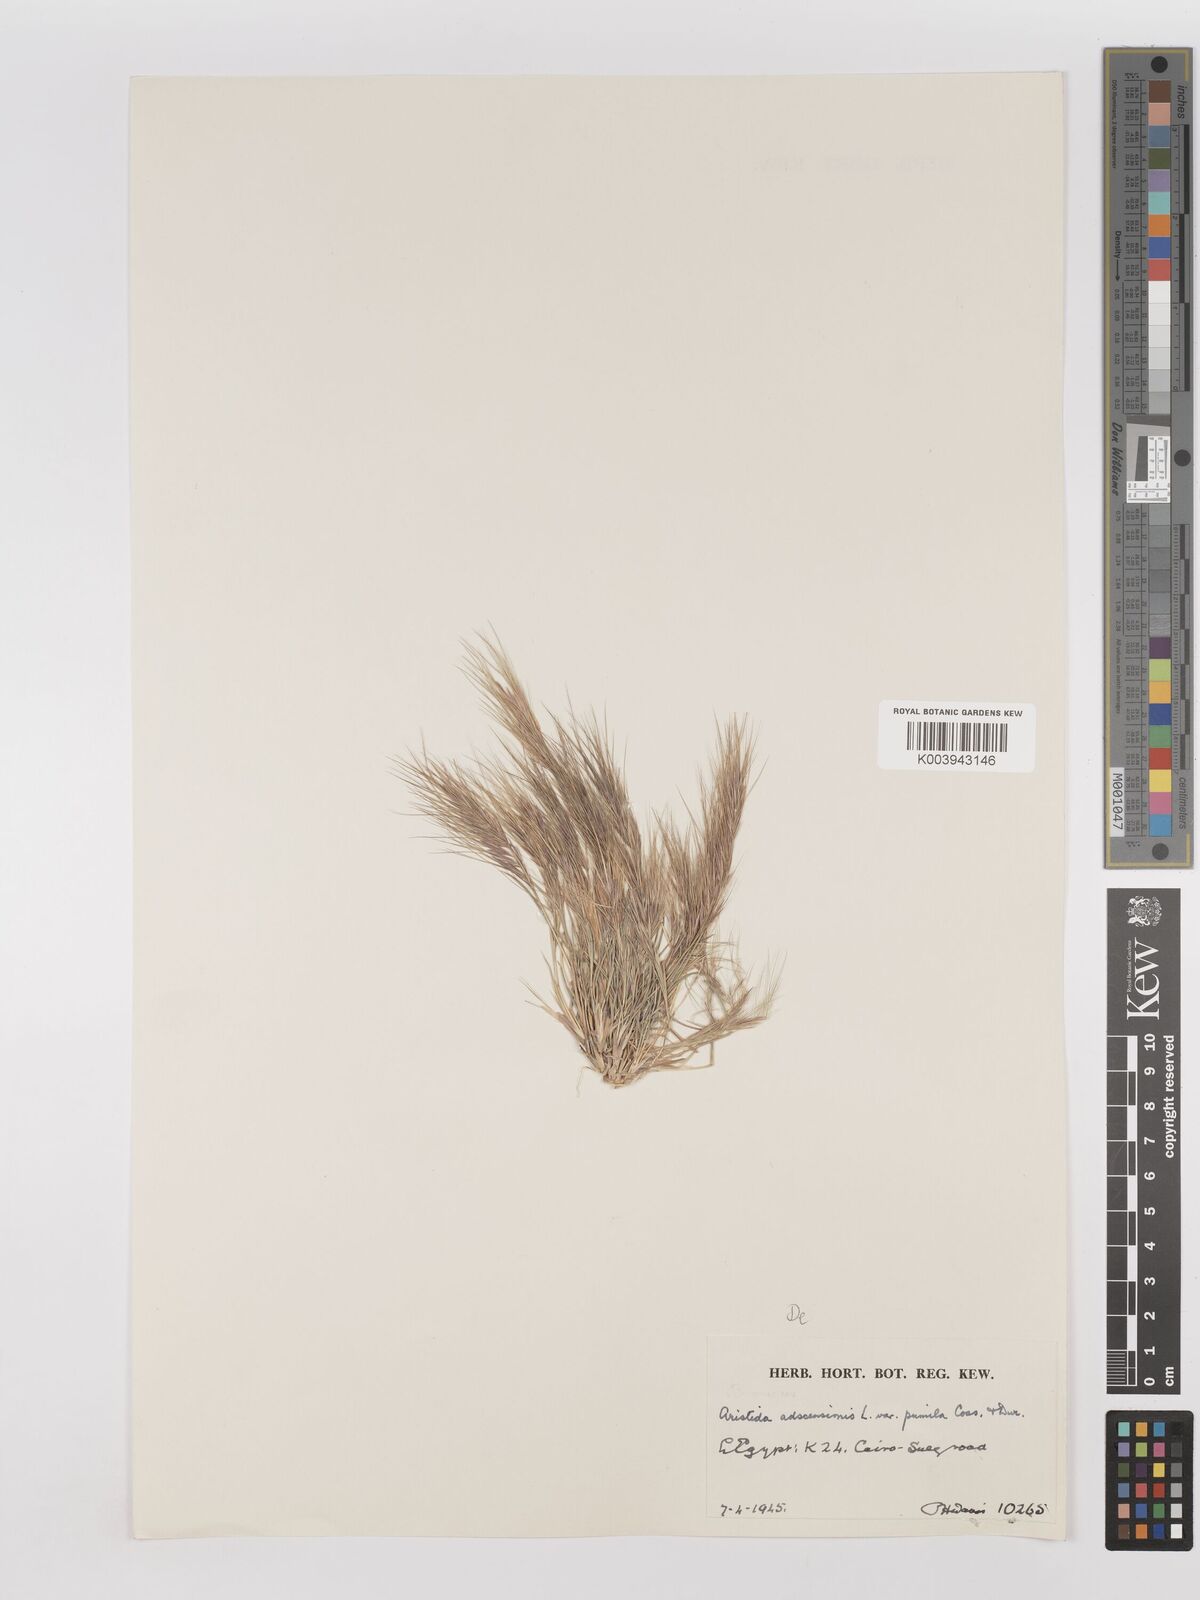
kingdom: Plantae
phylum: Tracheophyta
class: Liliopsida
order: Poales
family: Poaceae
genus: Aristida
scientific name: Aristida adscensionis
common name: Sixweeks threeawn
